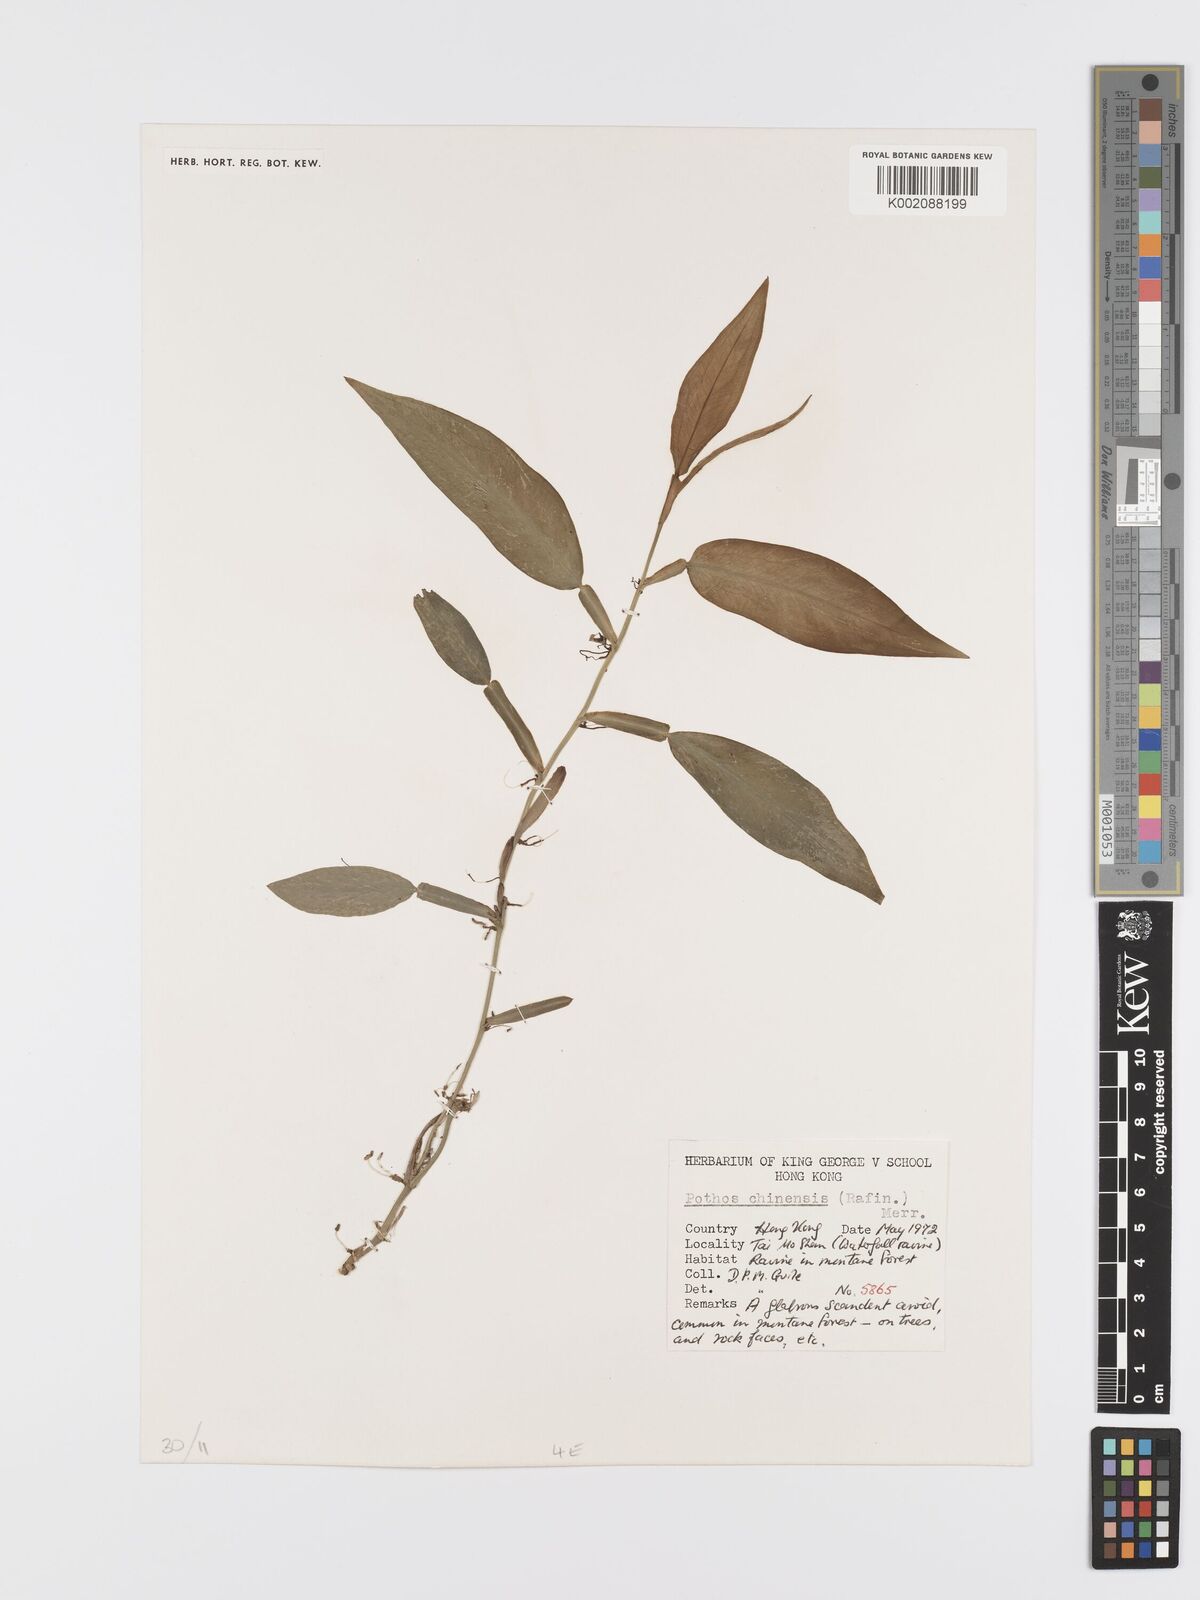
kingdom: Plantae
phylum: Tracheophyta
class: Liliopsida
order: Alismatales
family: Araceae
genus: Pothos
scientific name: Pothos chinensis
